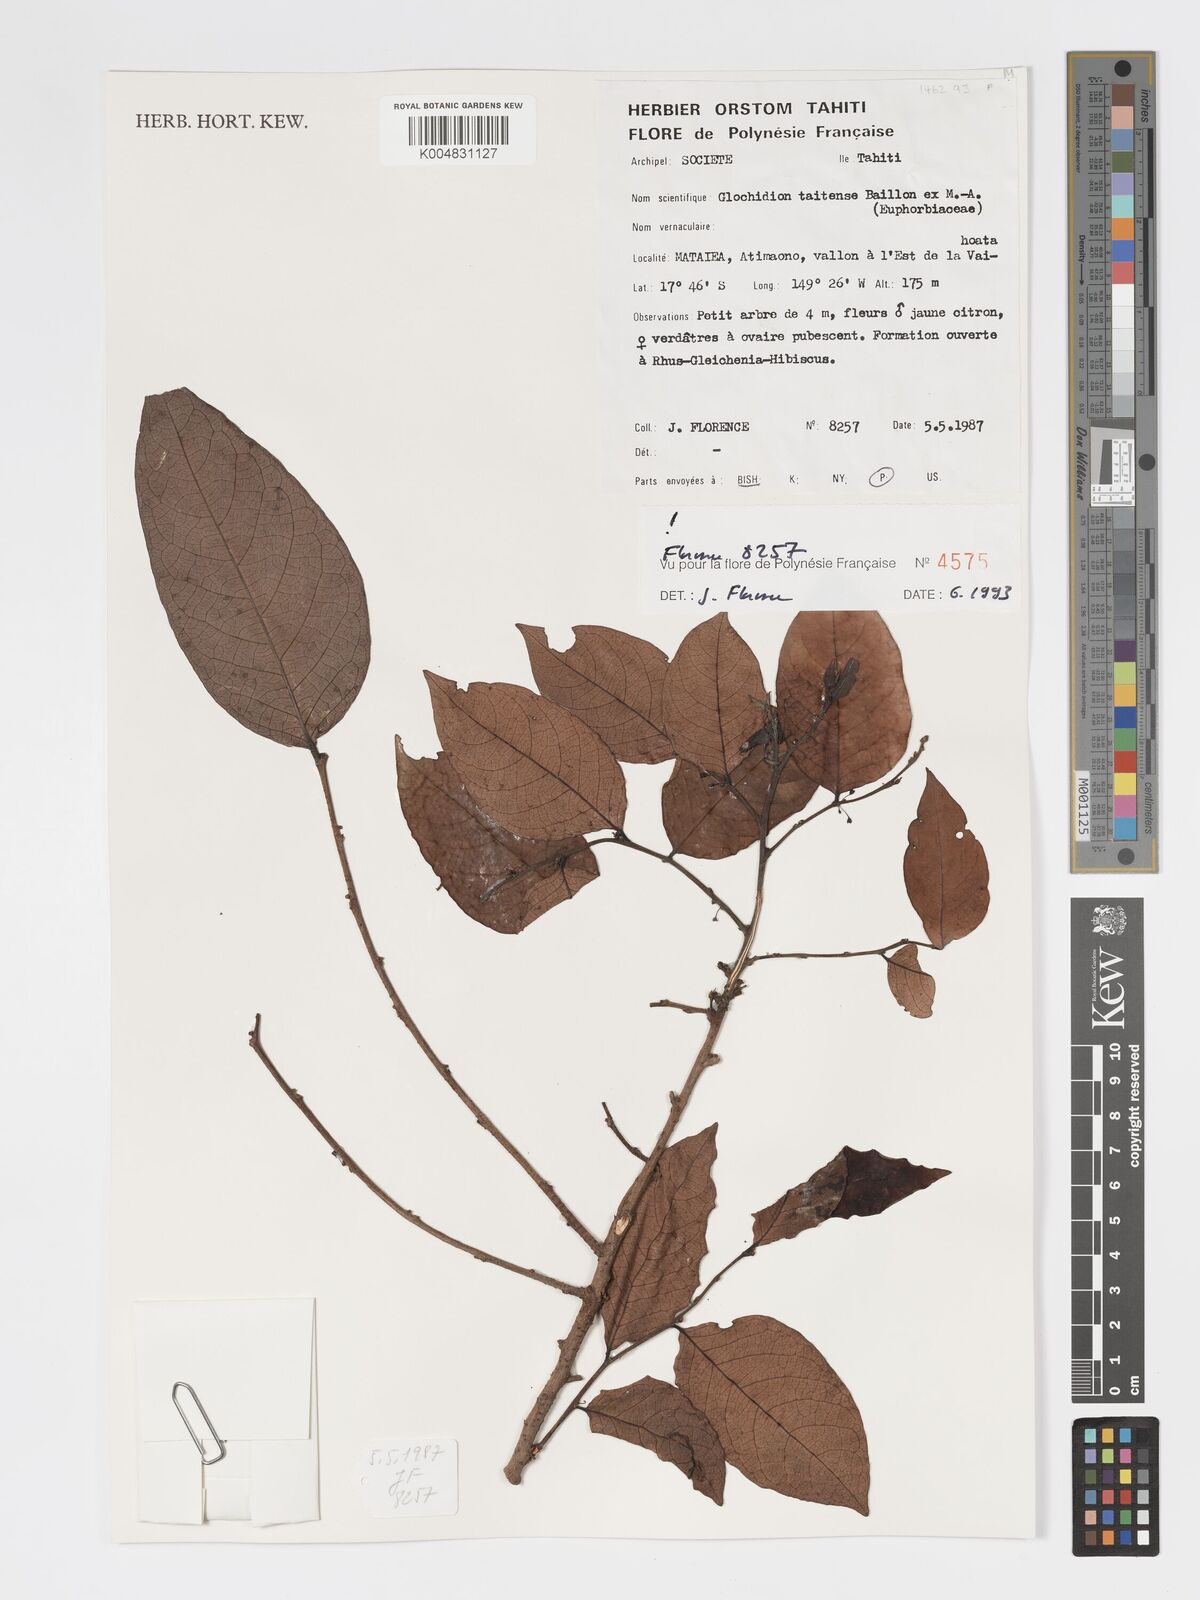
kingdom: Plantae
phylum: Tracheophyta
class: Magnoliopsida
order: Malpighiales
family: Phyllanthaceae
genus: Glochidion
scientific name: Glochidion taitense
